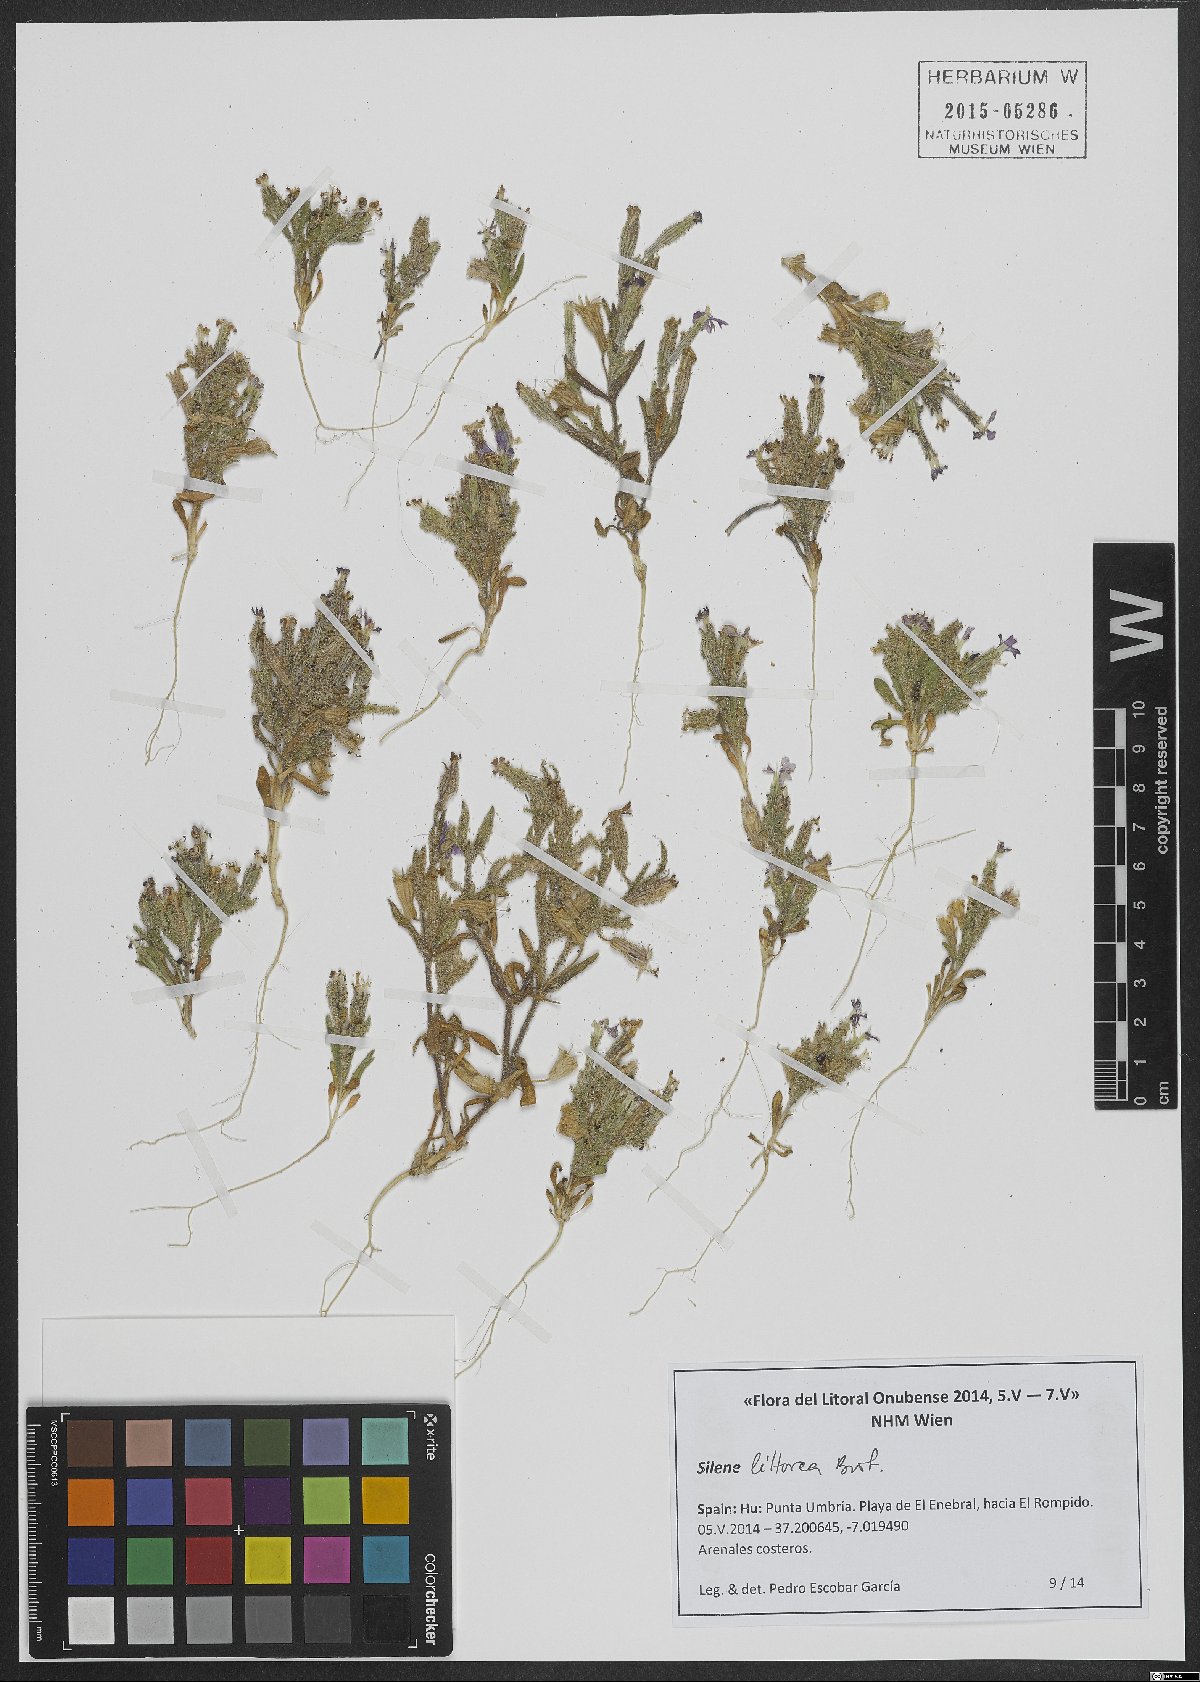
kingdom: Plantae
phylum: Tracheophyta
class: Magnoliopsida
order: Caryophyllales
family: Caryophyllaceae
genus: Silene
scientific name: Silene littorea
